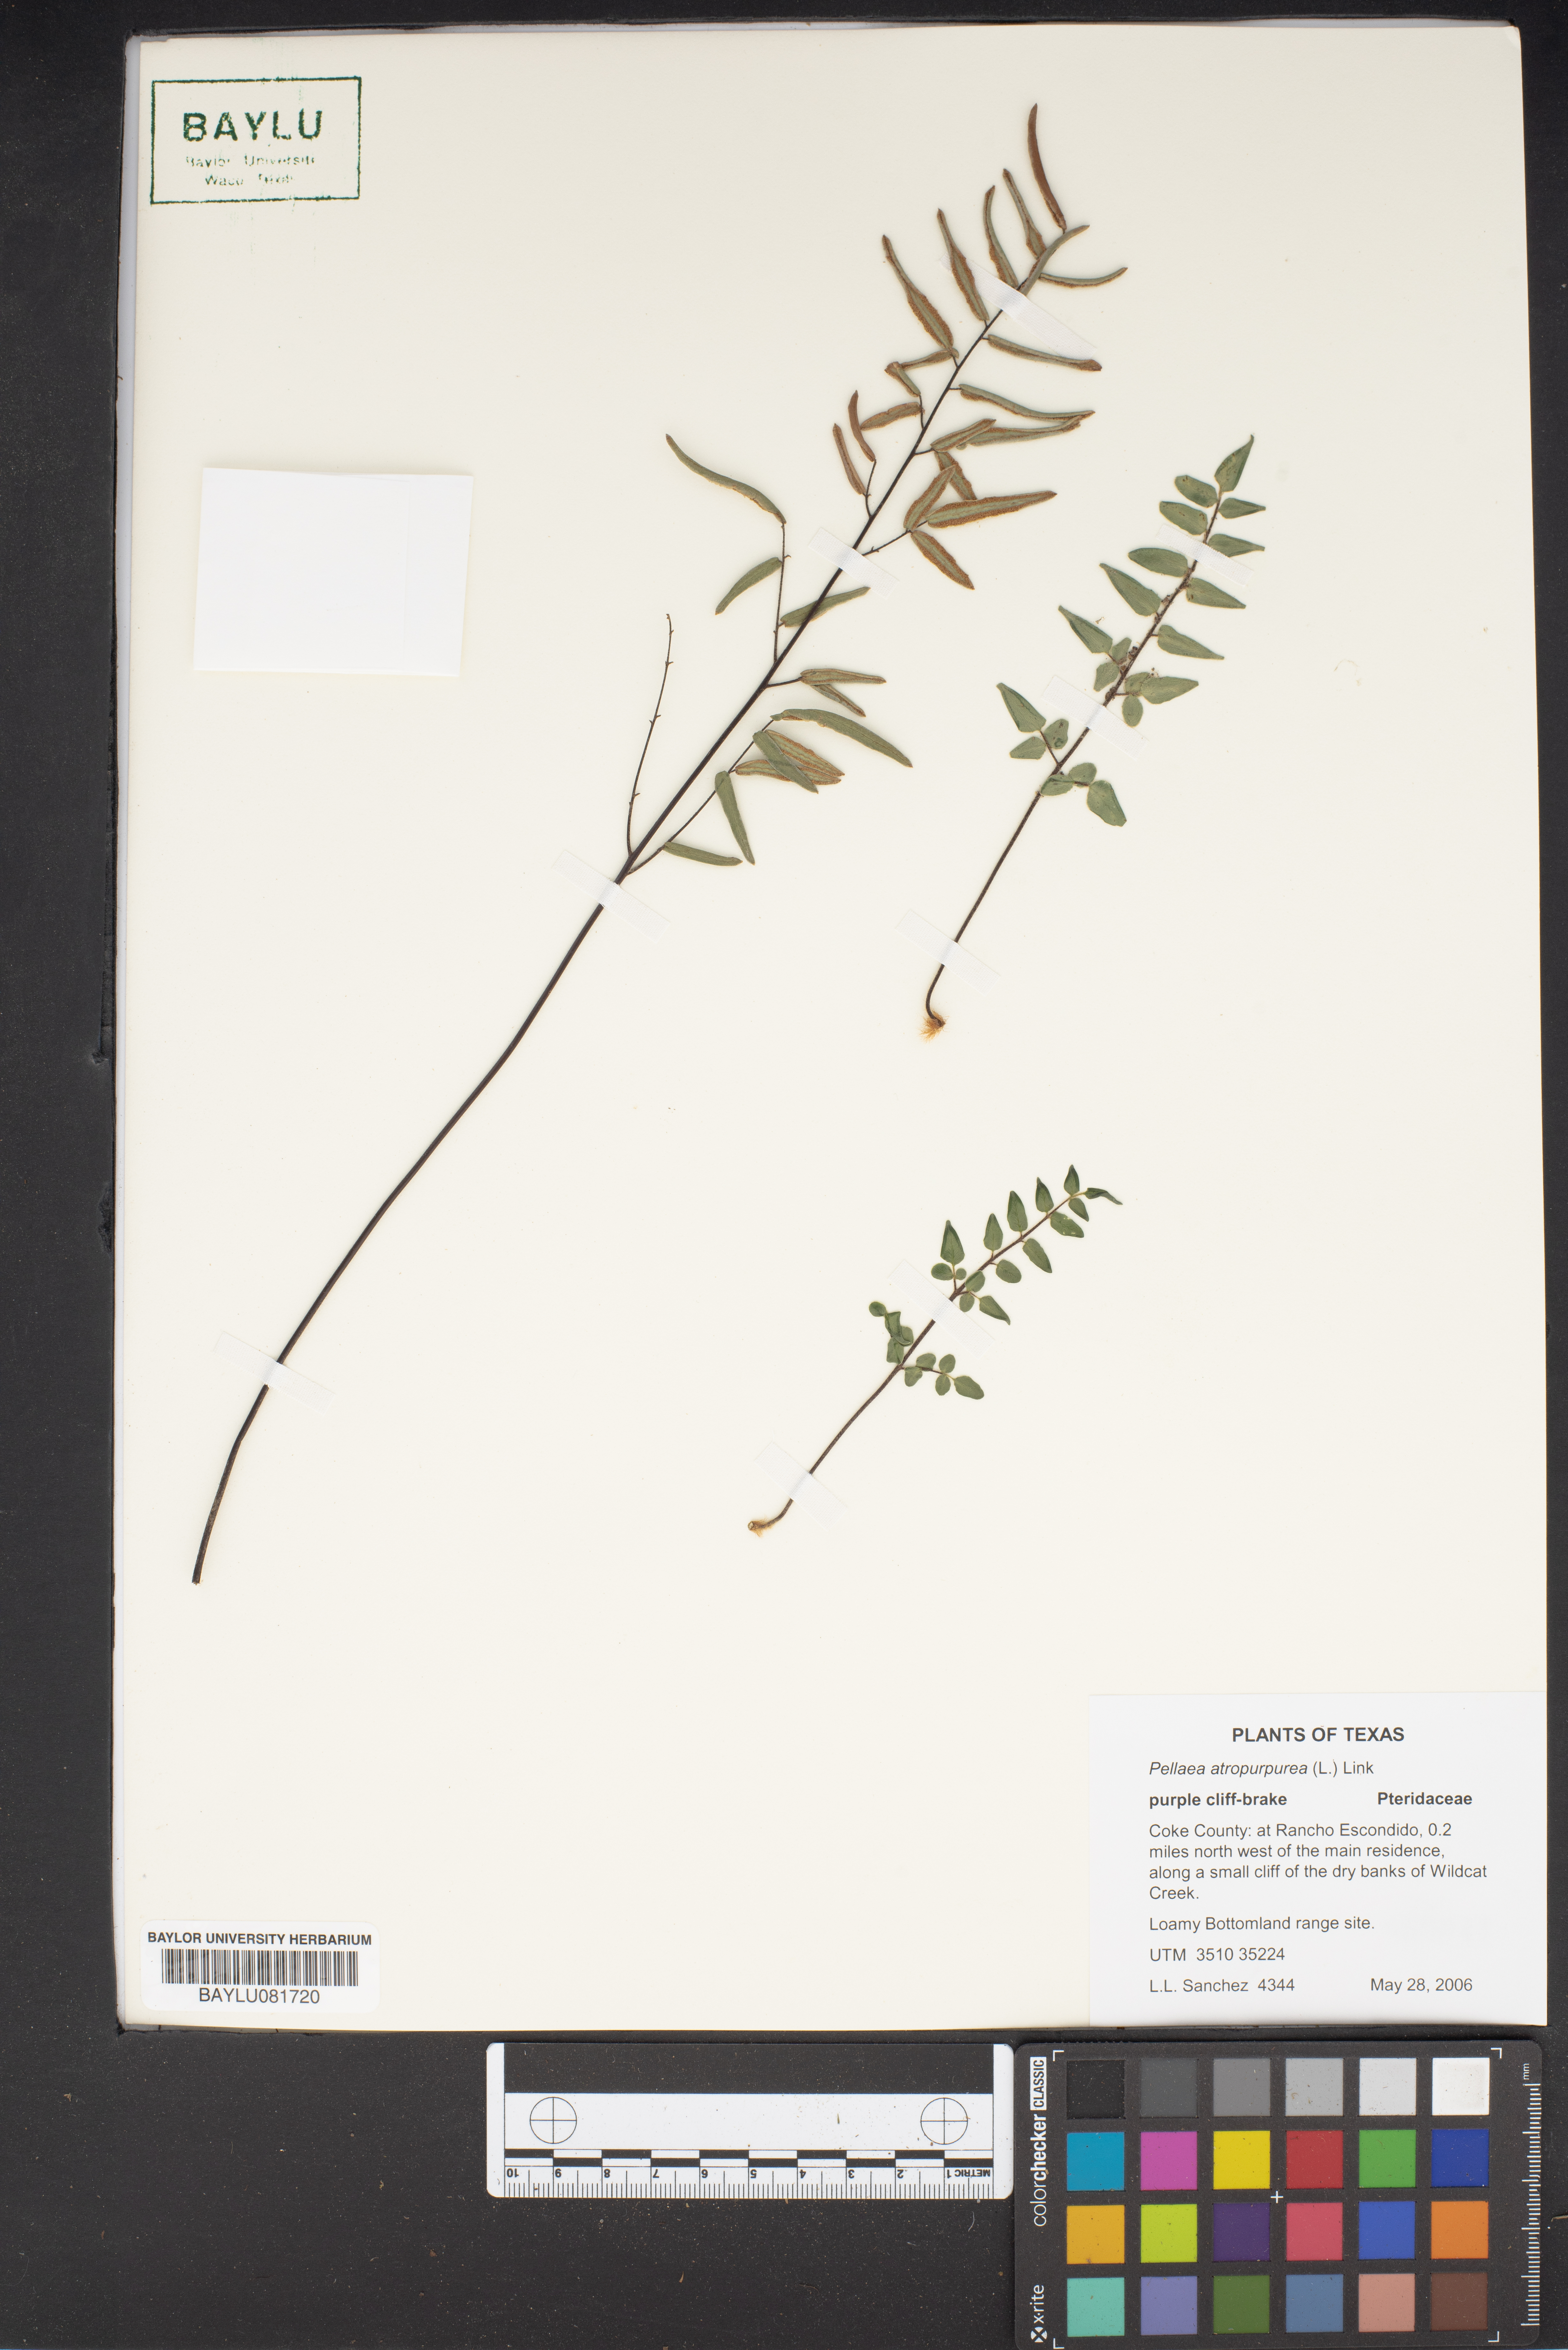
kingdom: Plantae
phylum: Tracheophyta
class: Polypodiopsida
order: Polypodiales
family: Pteridaceae
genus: Pellaea
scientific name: Pellaea atropurpurea
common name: Hairy cliffbrake
